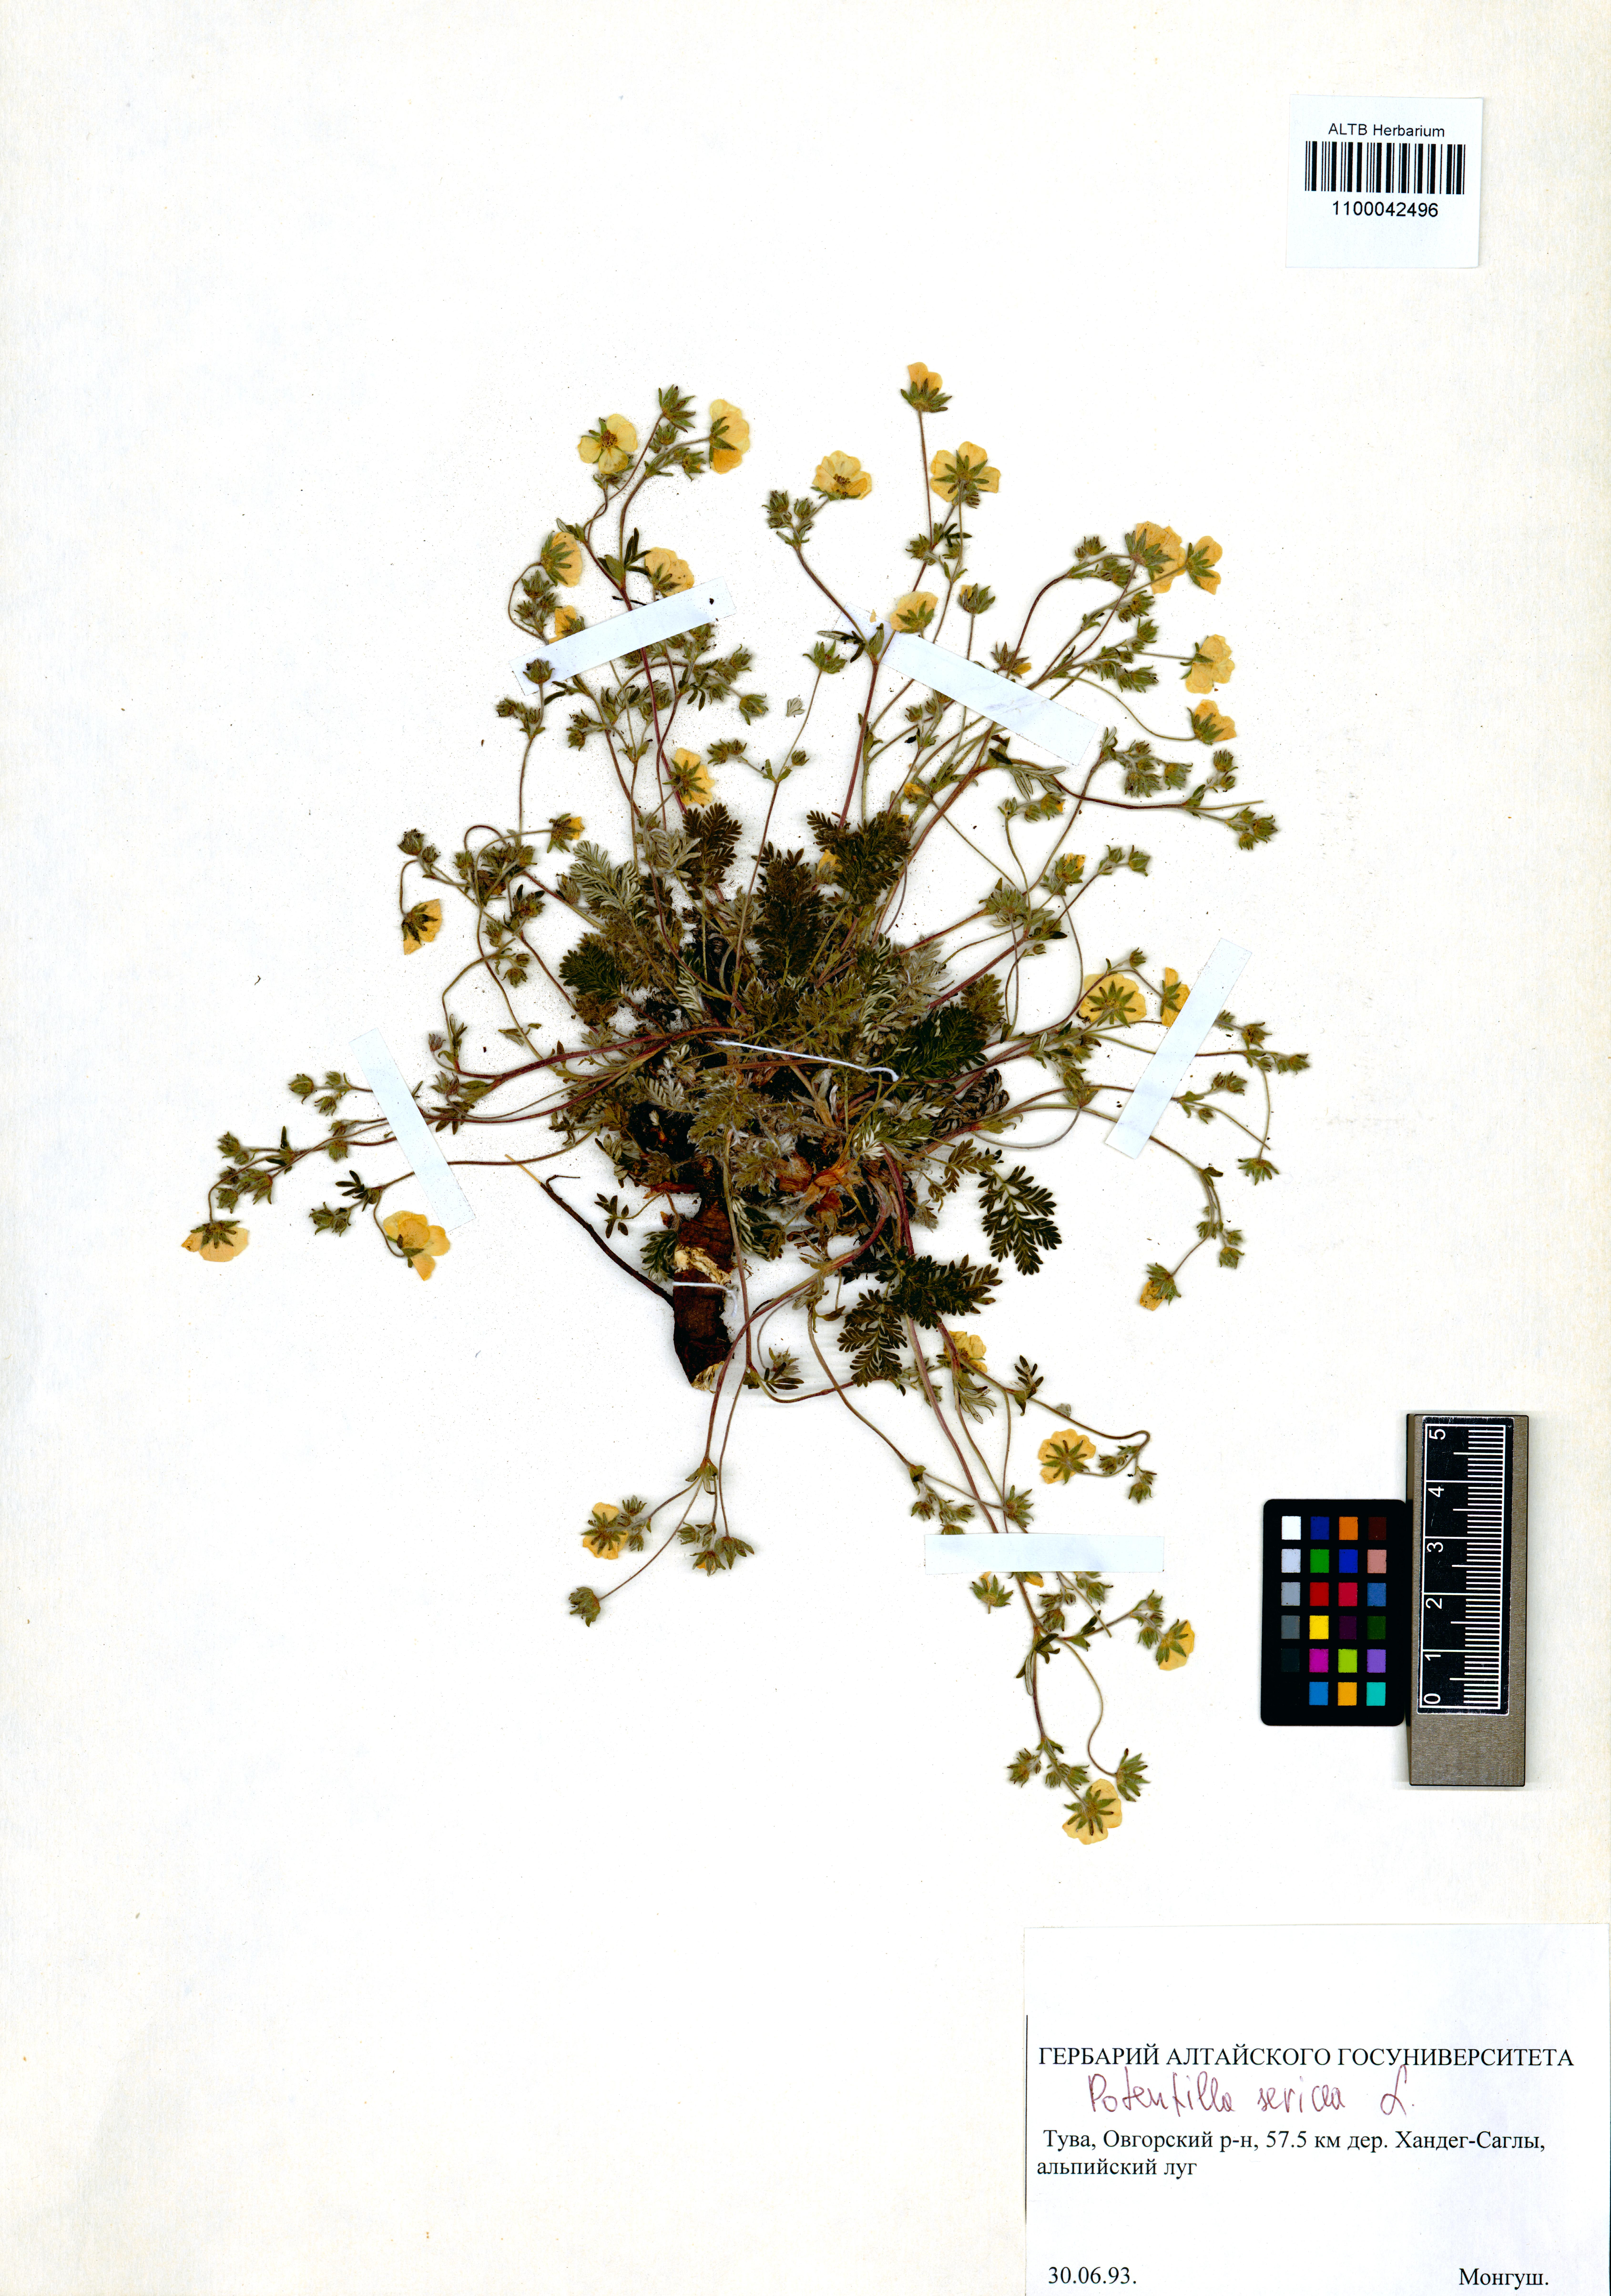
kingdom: Plantae
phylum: Tracheophyta
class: Magnoliopsida
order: Rosales
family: Rosaceae
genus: Potentilla
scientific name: Potentilla sericea
